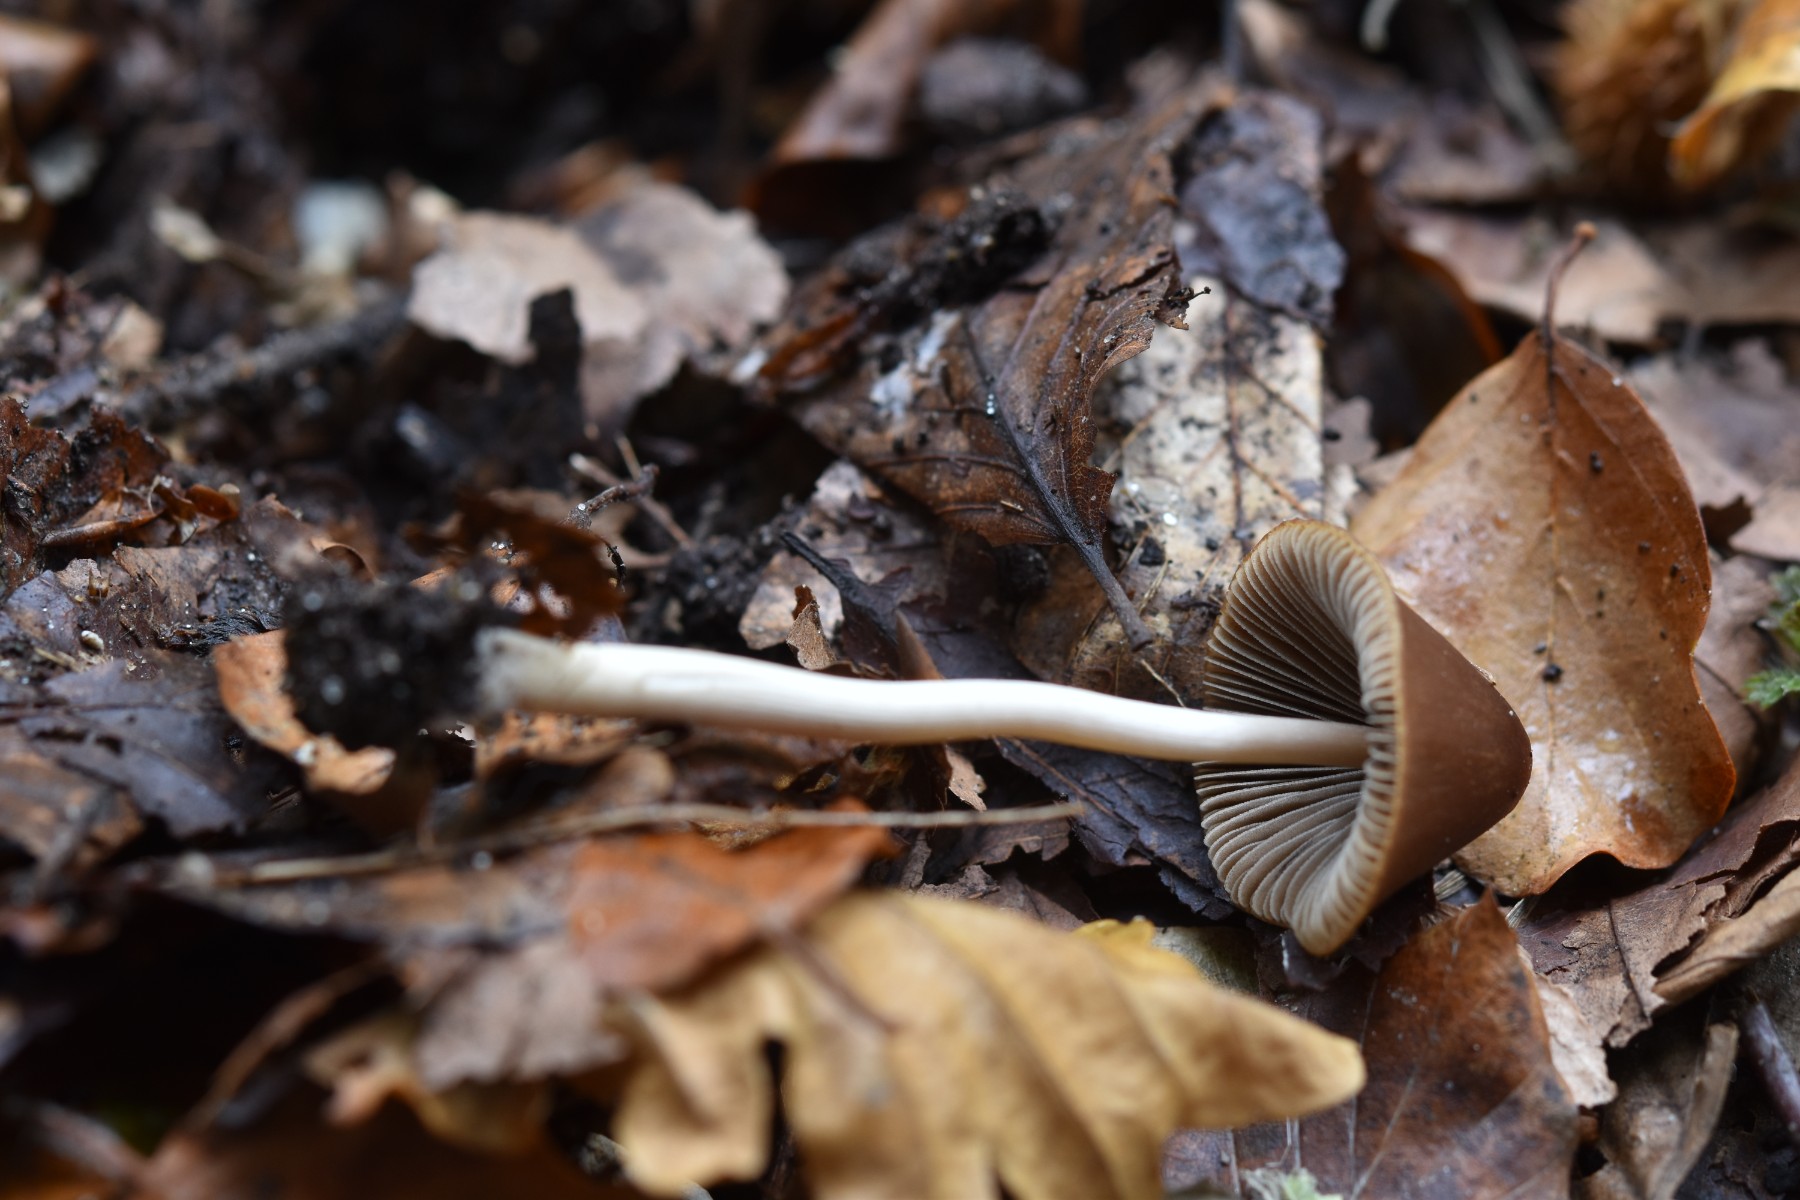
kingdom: Fungi
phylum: Basidiomycota
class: Agaricomycetes
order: Agaricales
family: Psathyrellaceae
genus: Parasola
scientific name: Parasola conopilea
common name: kegle-hjulhat
